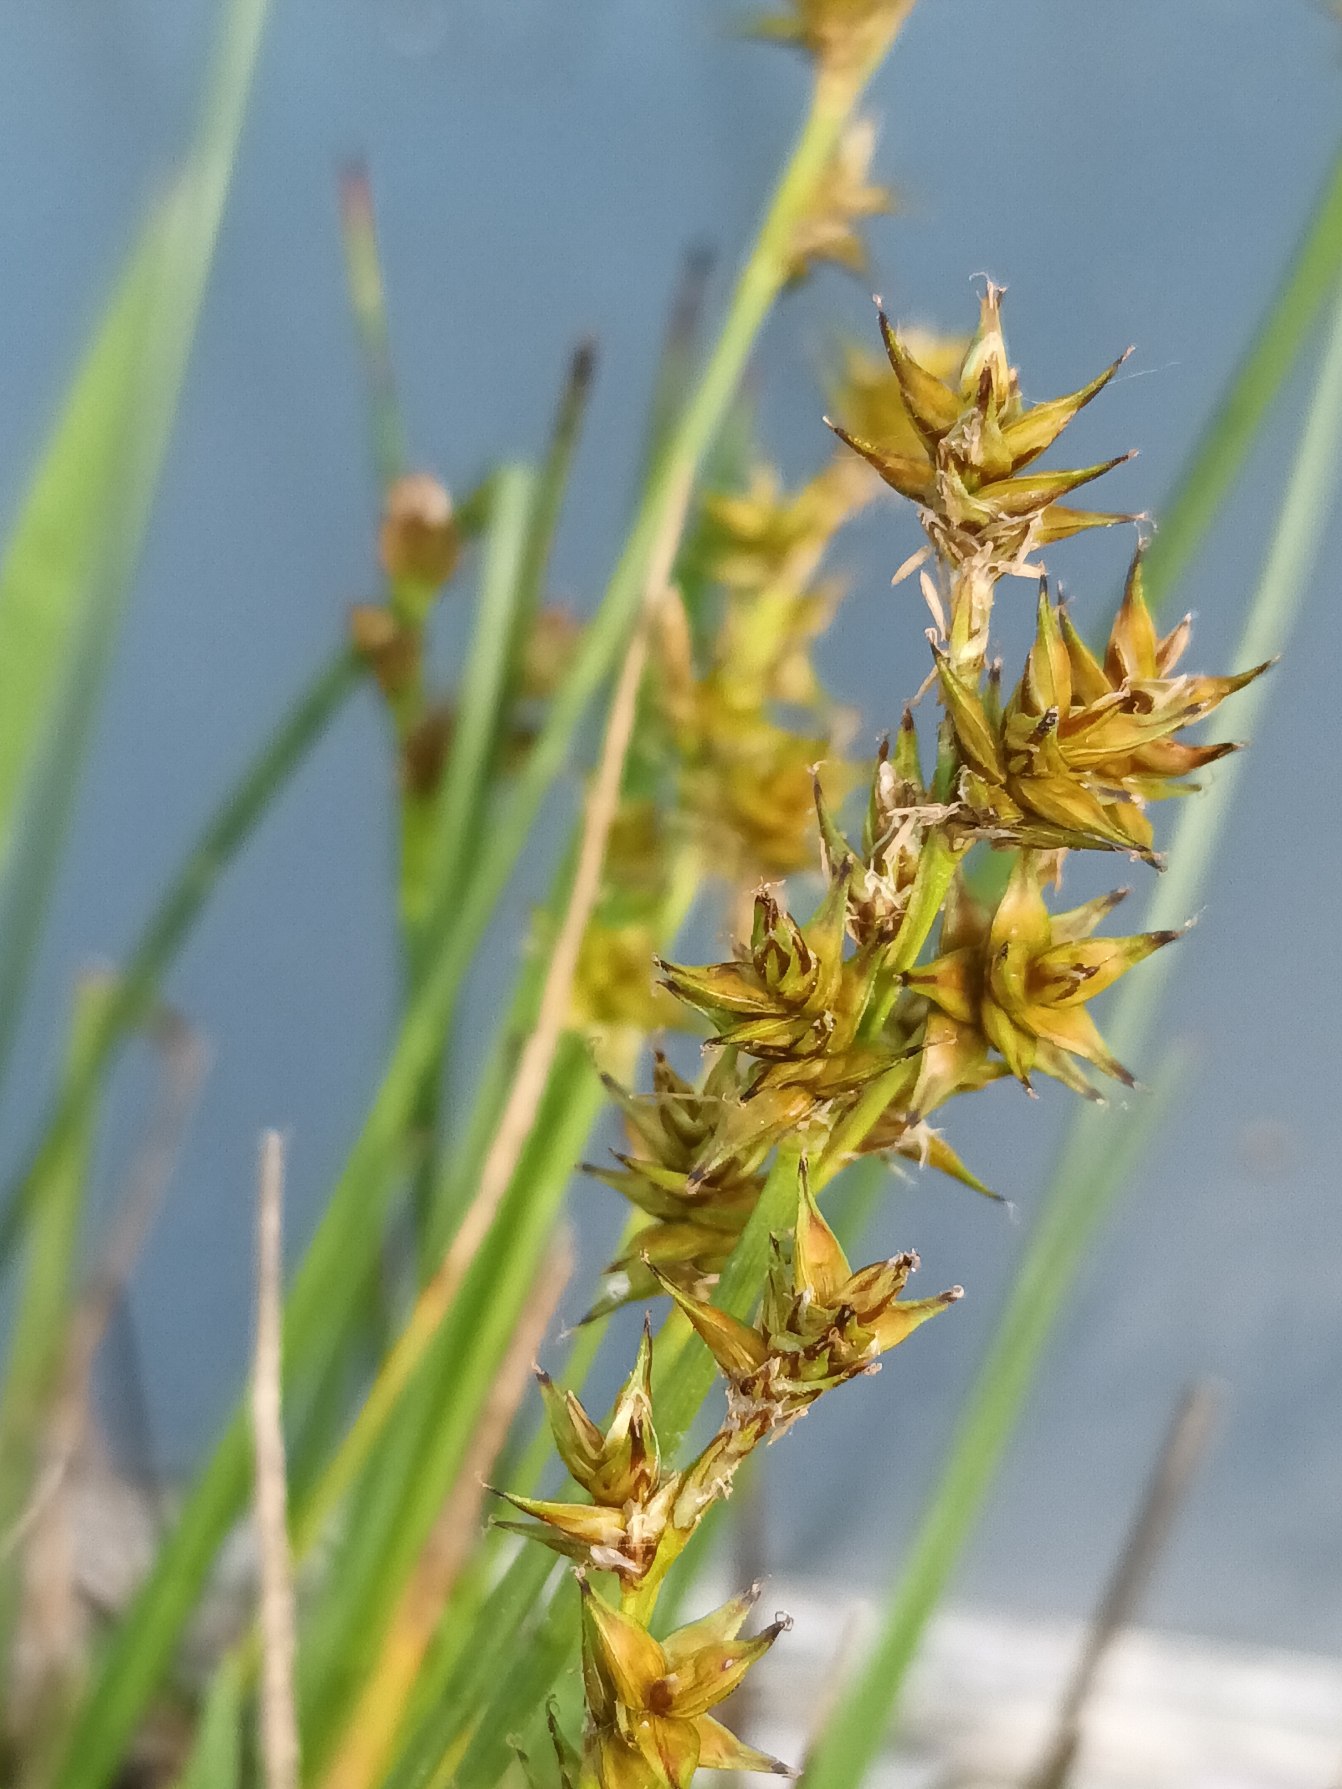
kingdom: Plantae
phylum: Tracheophyta
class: Liliopsida
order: Poales
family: Cyperaceae
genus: Carex
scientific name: Carex echinata
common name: Stjerne-star
